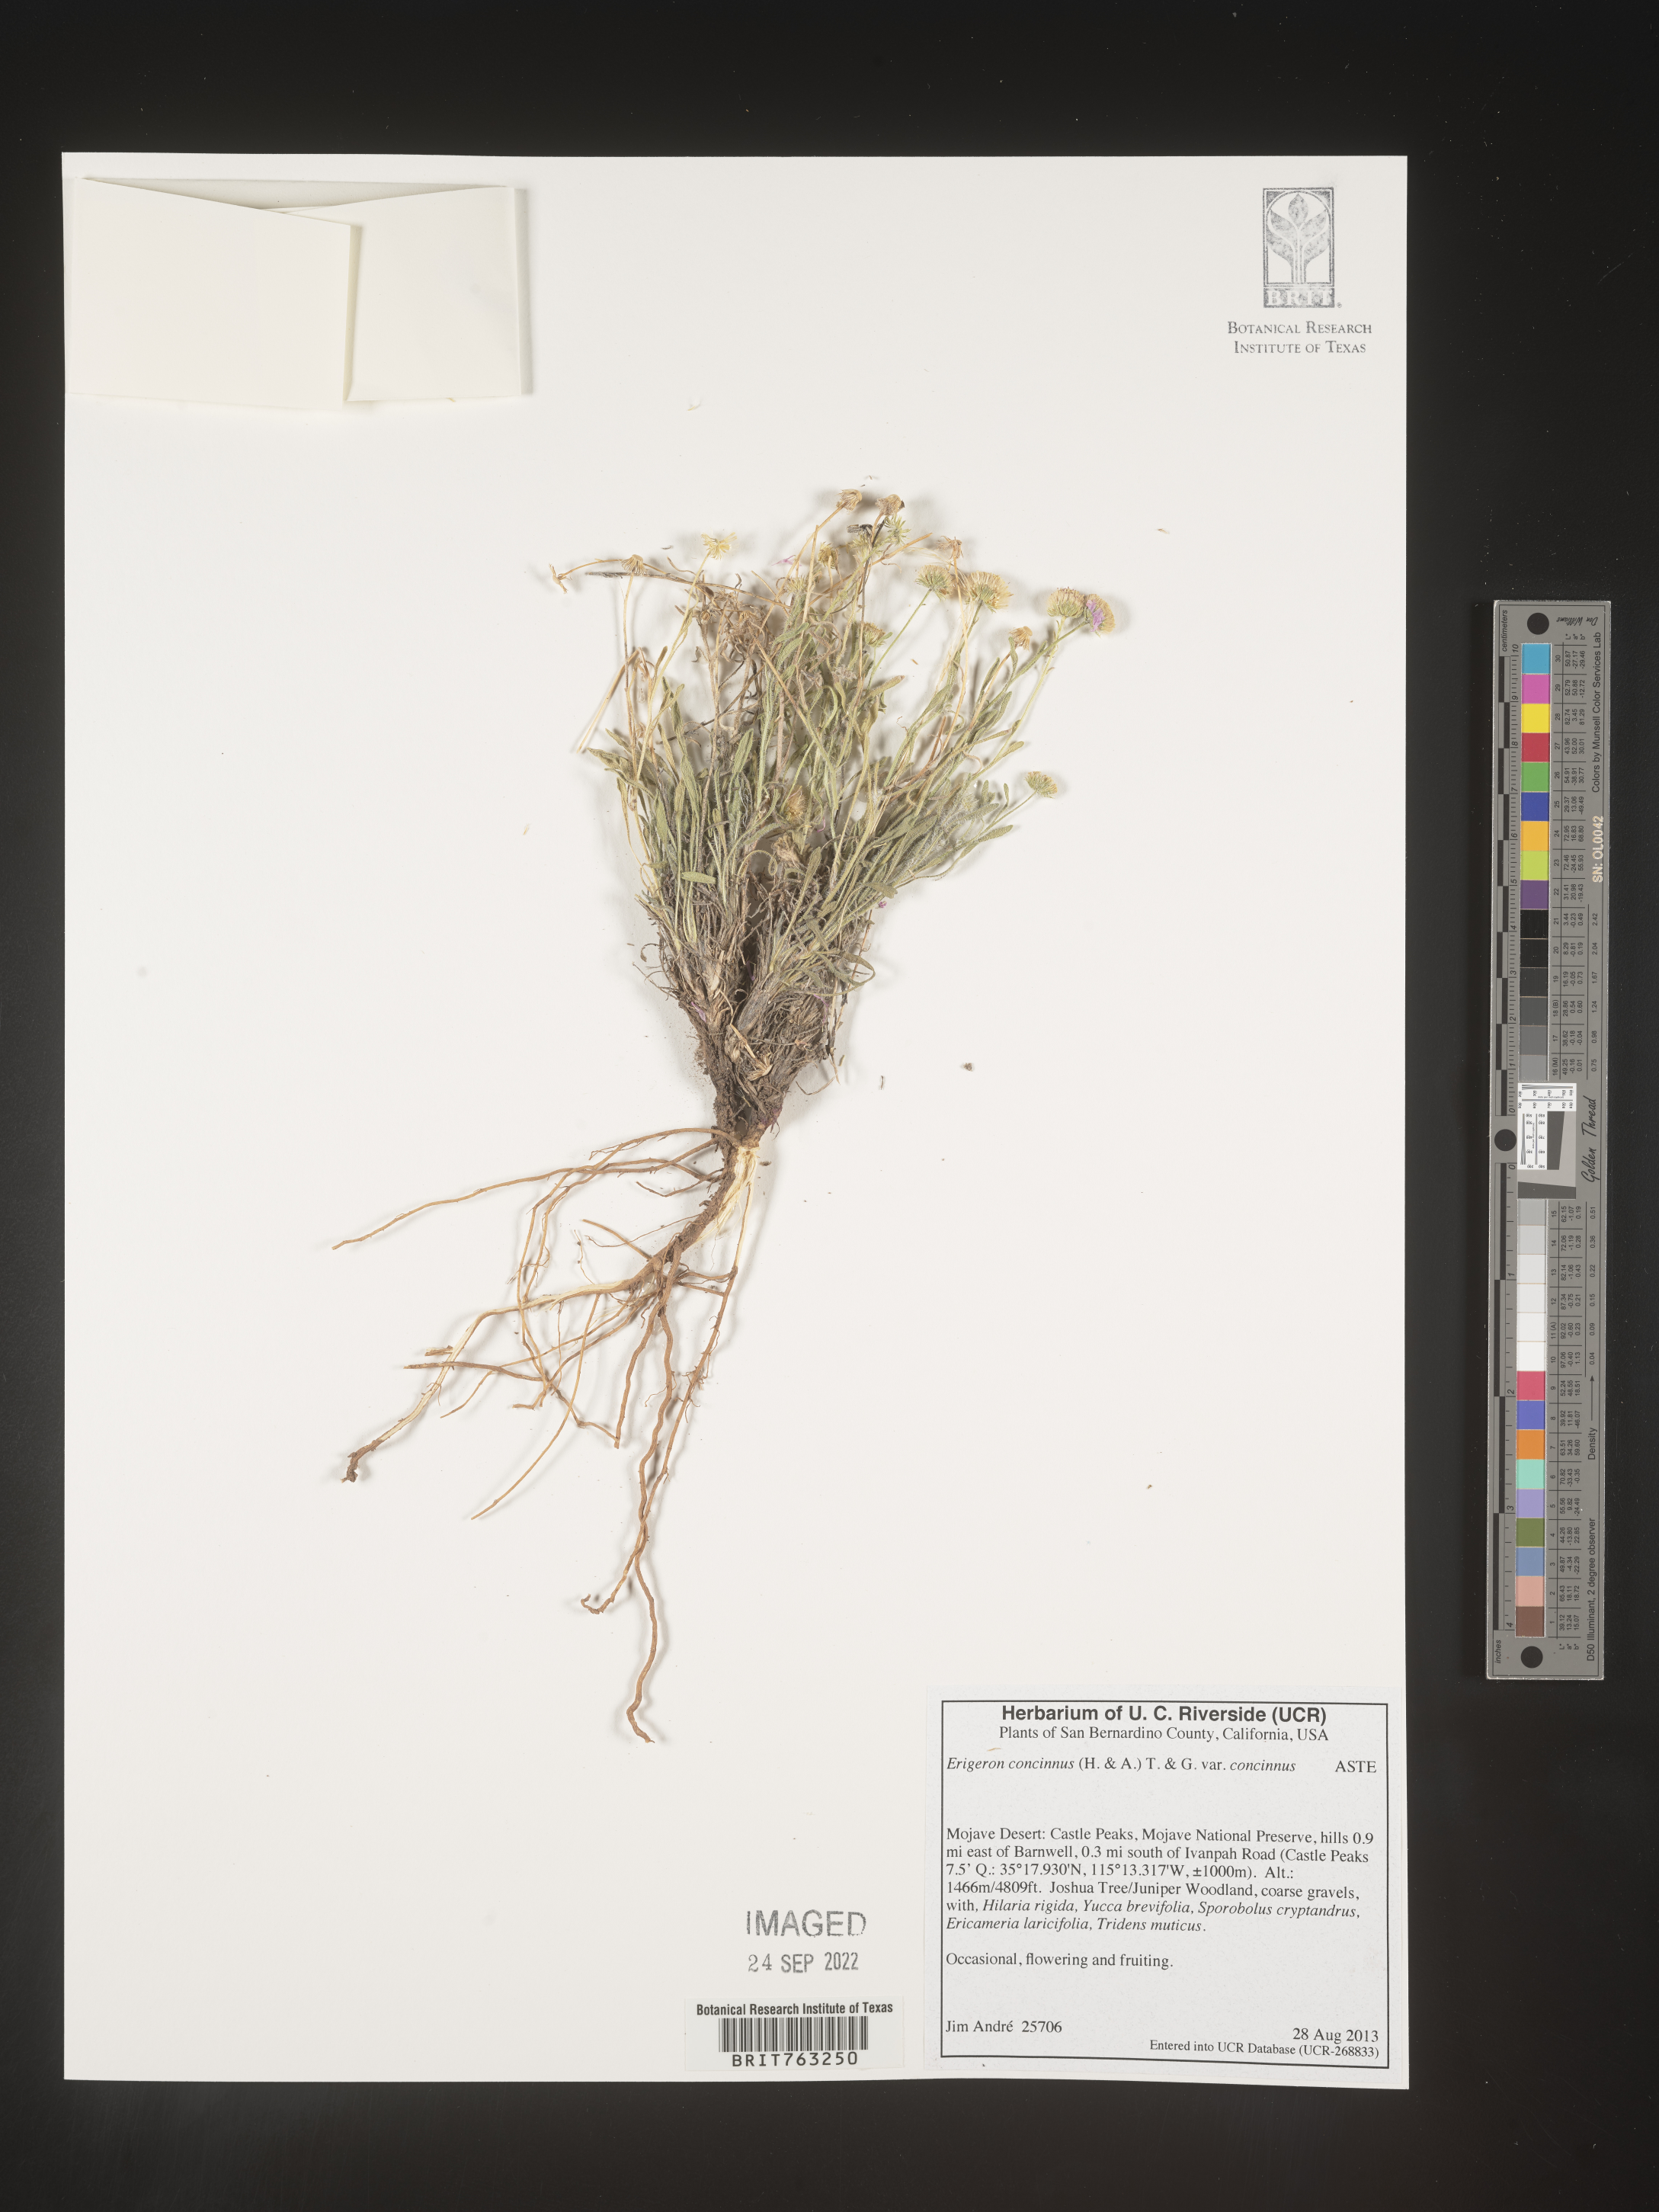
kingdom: Plantae
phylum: Tracheophyta
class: Magnoliopsida
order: Asterales
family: Asteraceae
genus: Erigeron
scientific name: Erigeron concinnus
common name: Navajo fleabane
